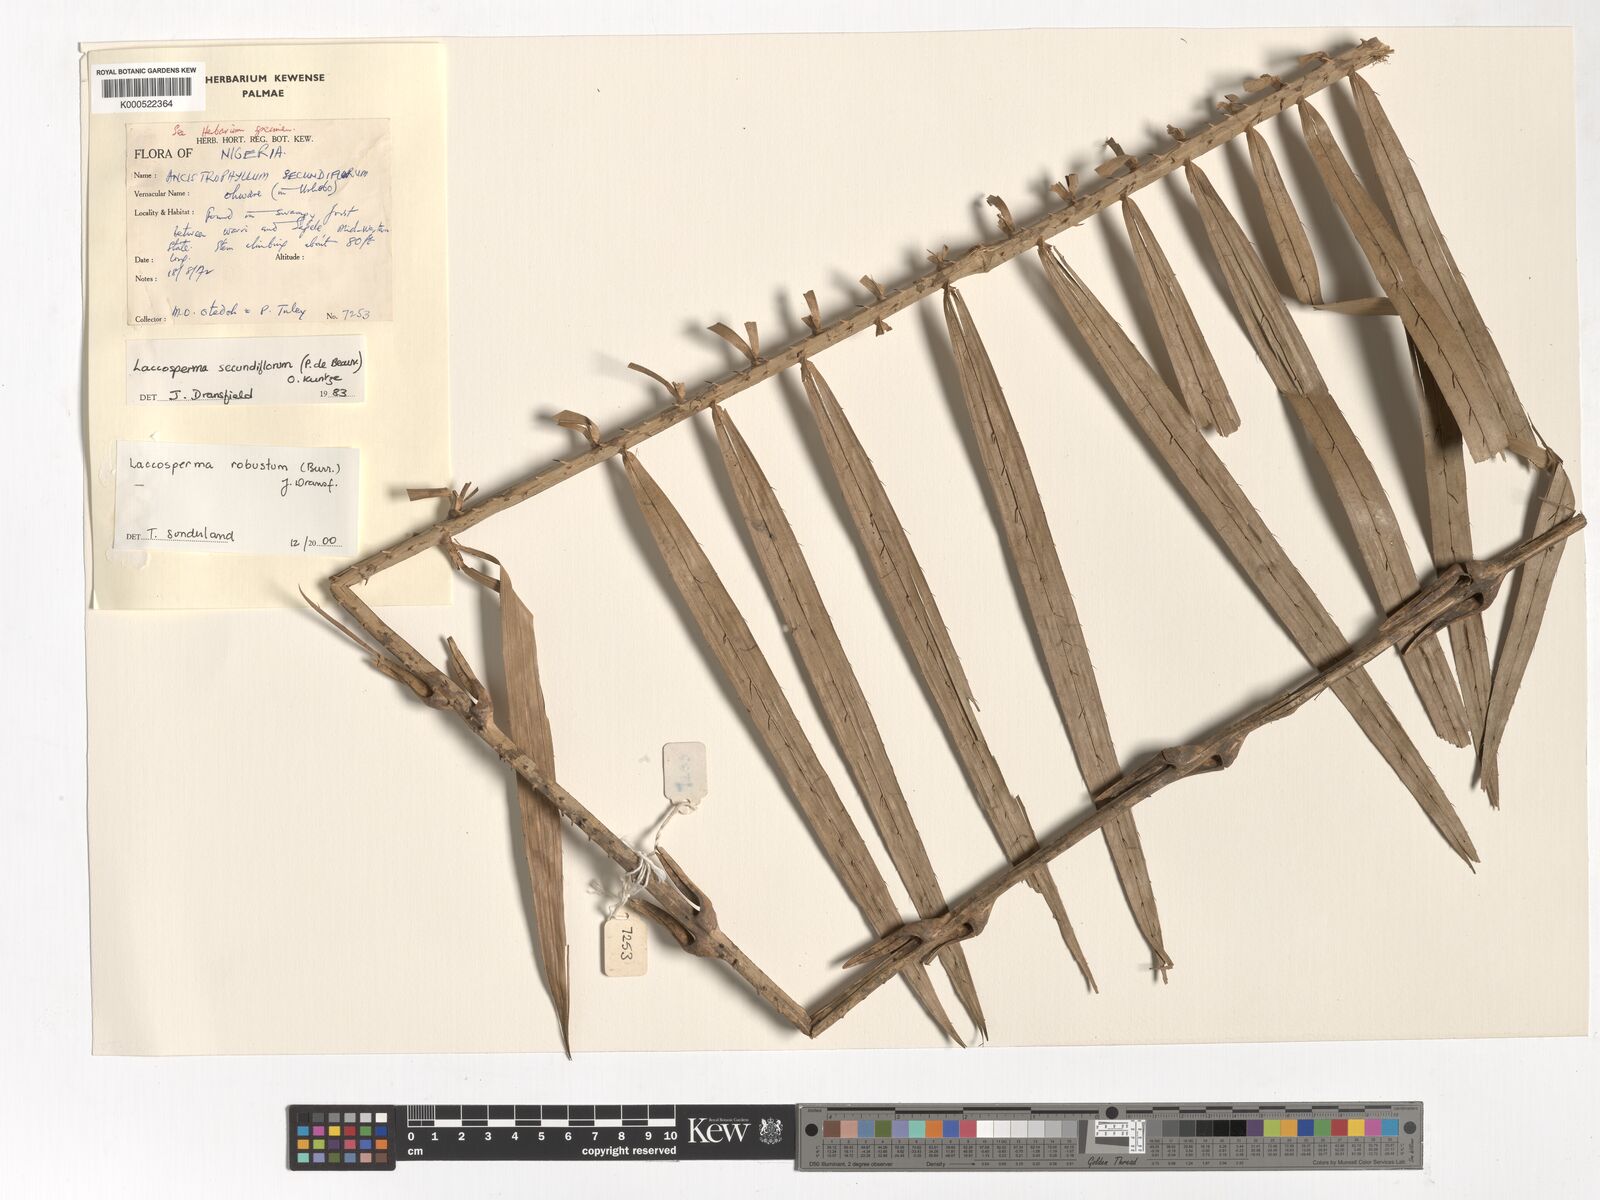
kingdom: Plantae
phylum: Tracheophyta
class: Liliopsida
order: Arecales
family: Arecaceae
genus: Laccosperma
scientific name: Laccosperma robustum
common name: Rattan
